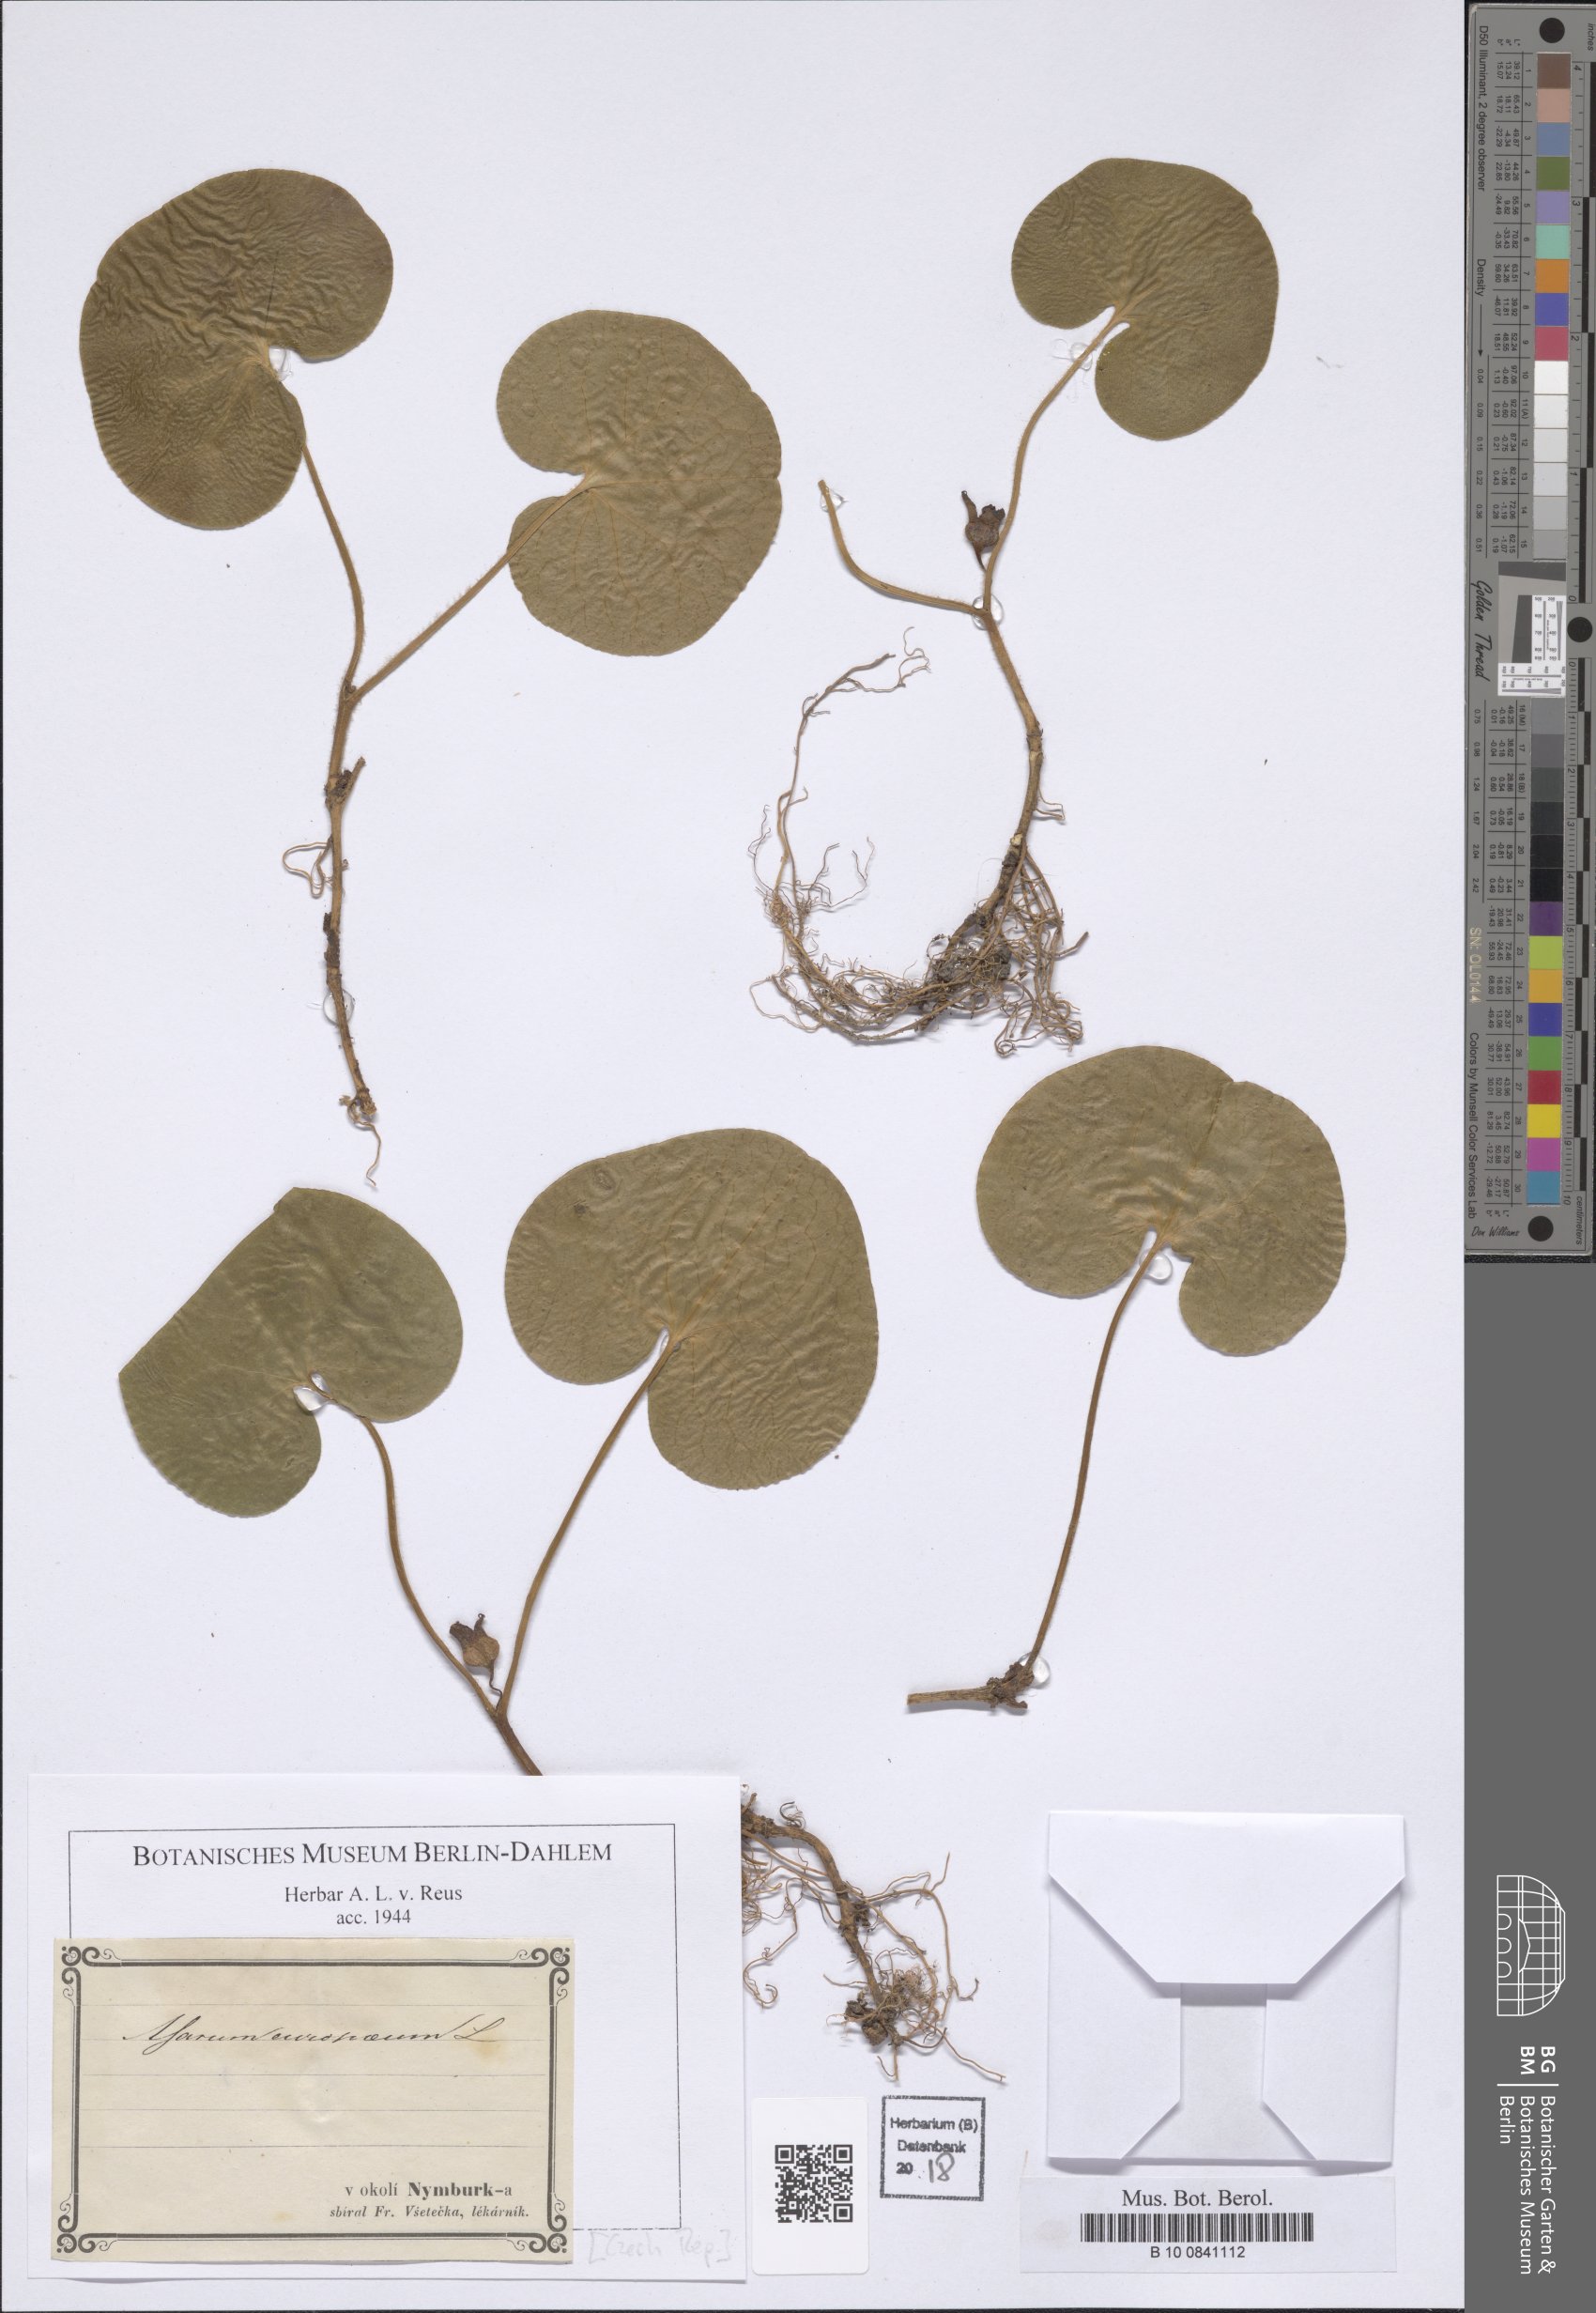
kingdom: Plantae
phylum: Tracheophyta
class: Magnoliopsida
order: Piperales
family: Aristolochiaceae
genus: Asarum
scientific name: Asarum europaeum
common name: Asarabacca
